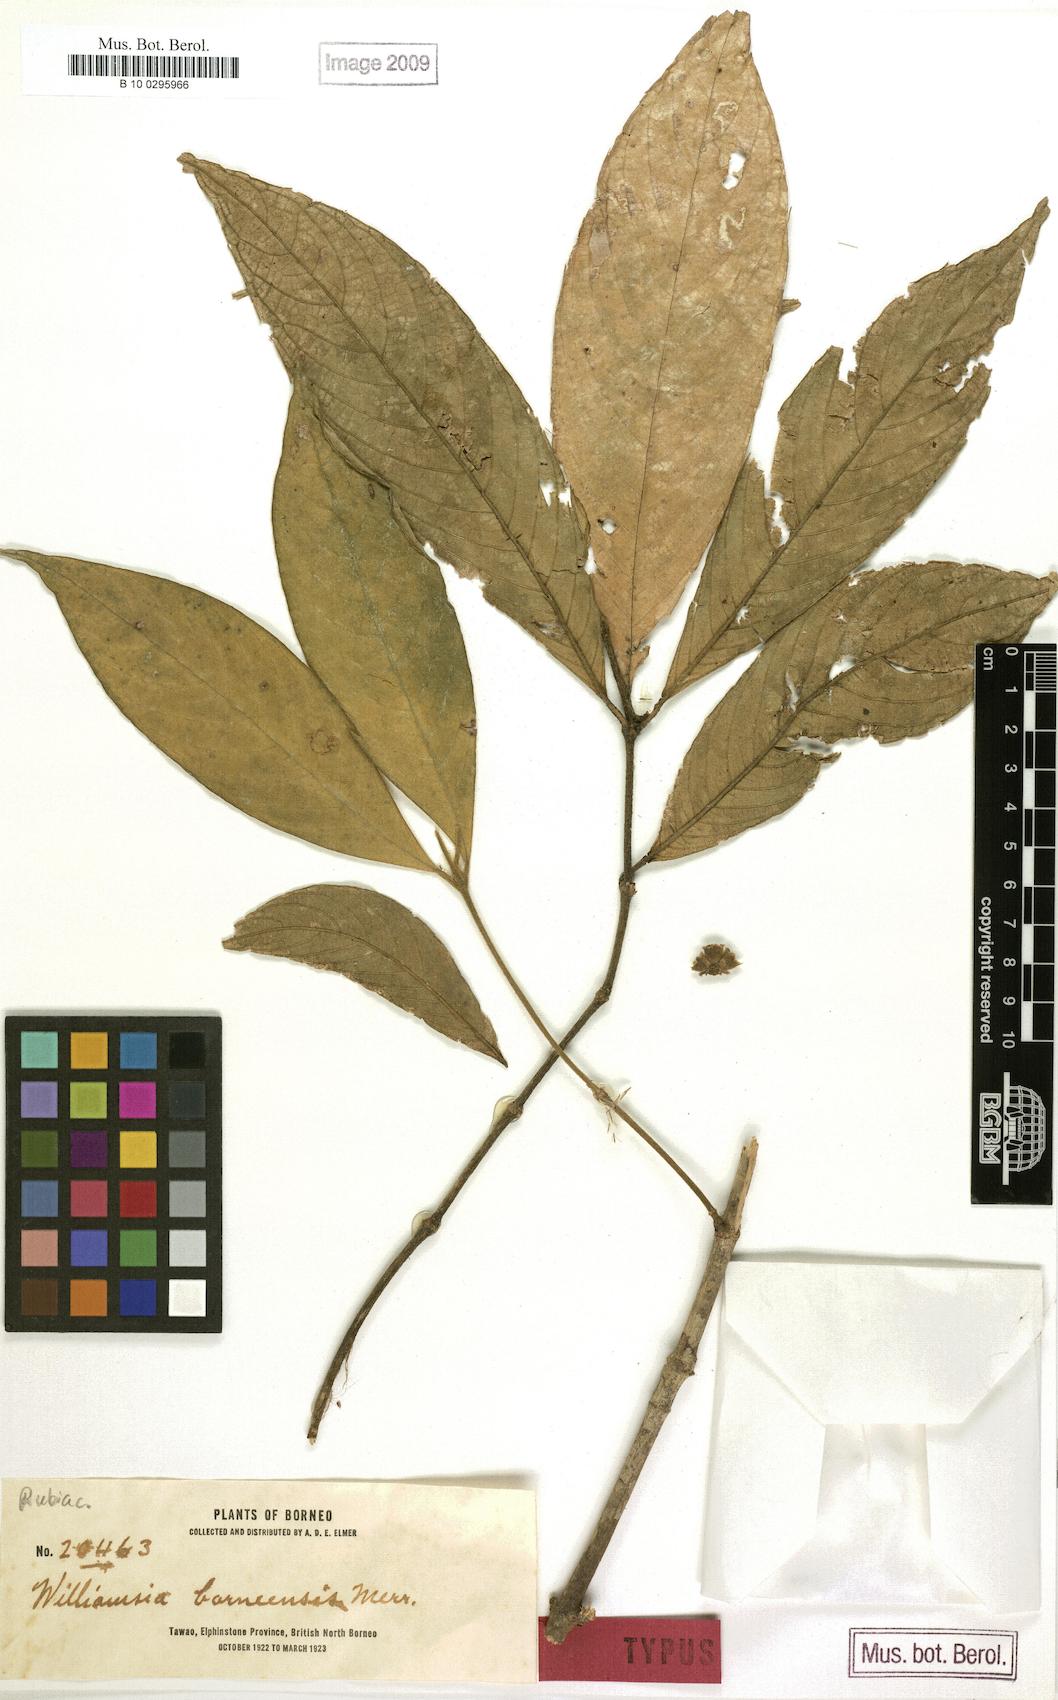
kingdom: Plantae
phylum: Tracheophyta
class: Magnoliopsida
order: Gentianales
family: Rubiaceae
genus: Praravinia
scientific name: Praravinia borneensis
